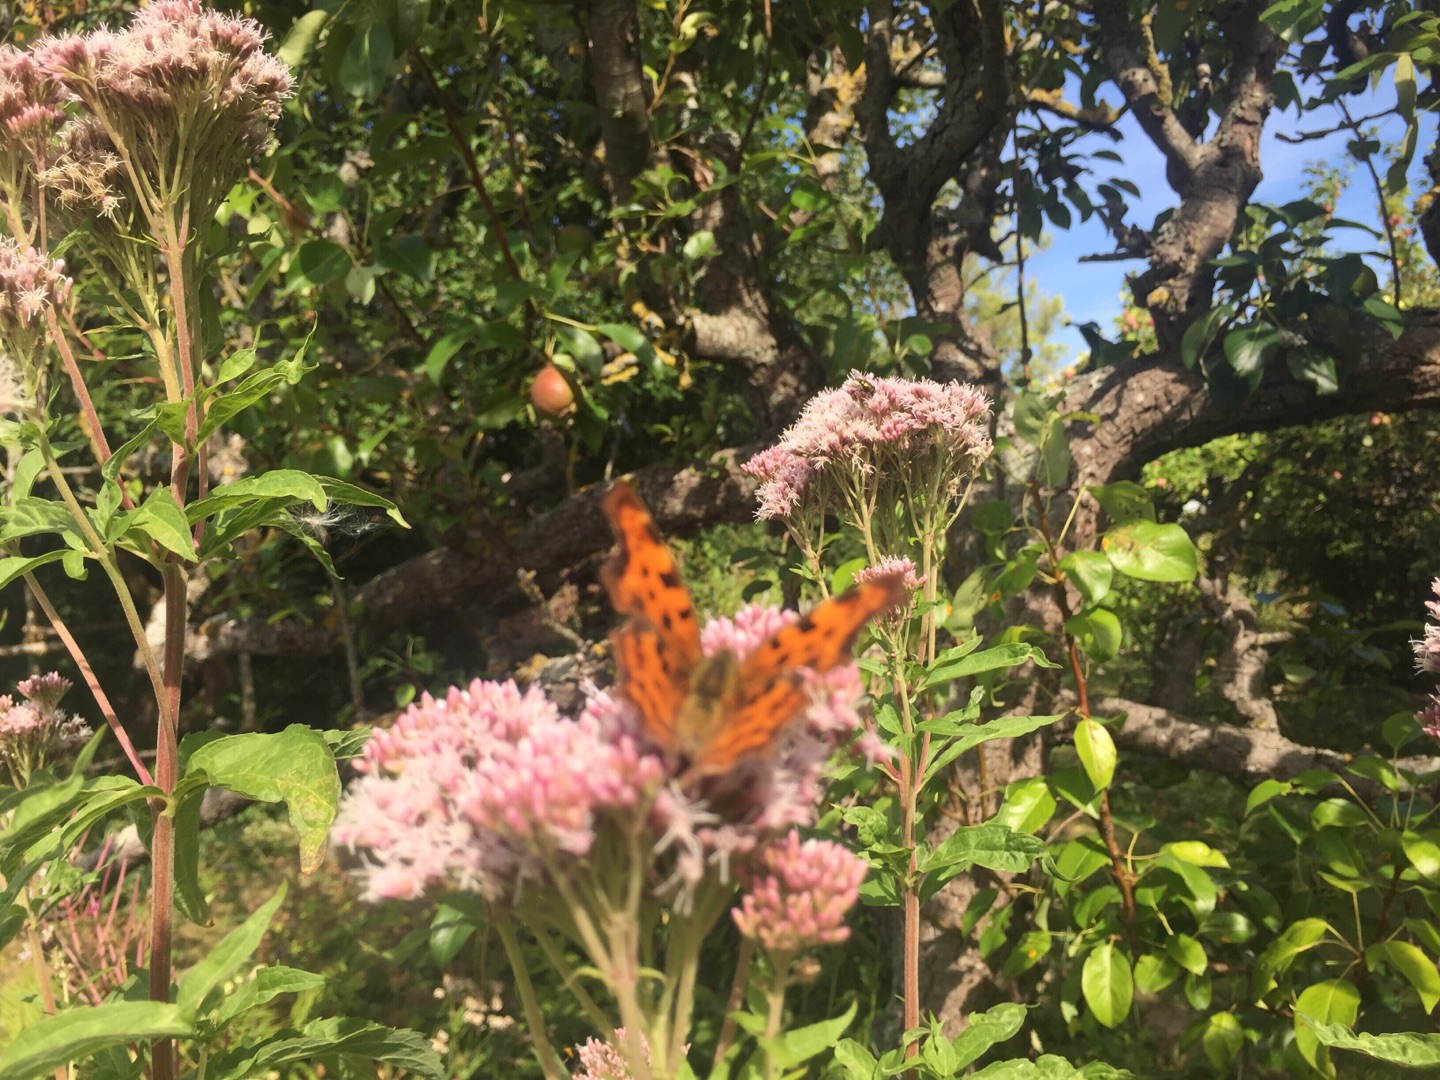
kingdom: Animalia
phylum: Arthropoda
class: Insecta
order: Lepidoptera
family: Nymphalidae
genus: Polygonia
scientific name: Polygonia c-album
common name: Det hvide C
